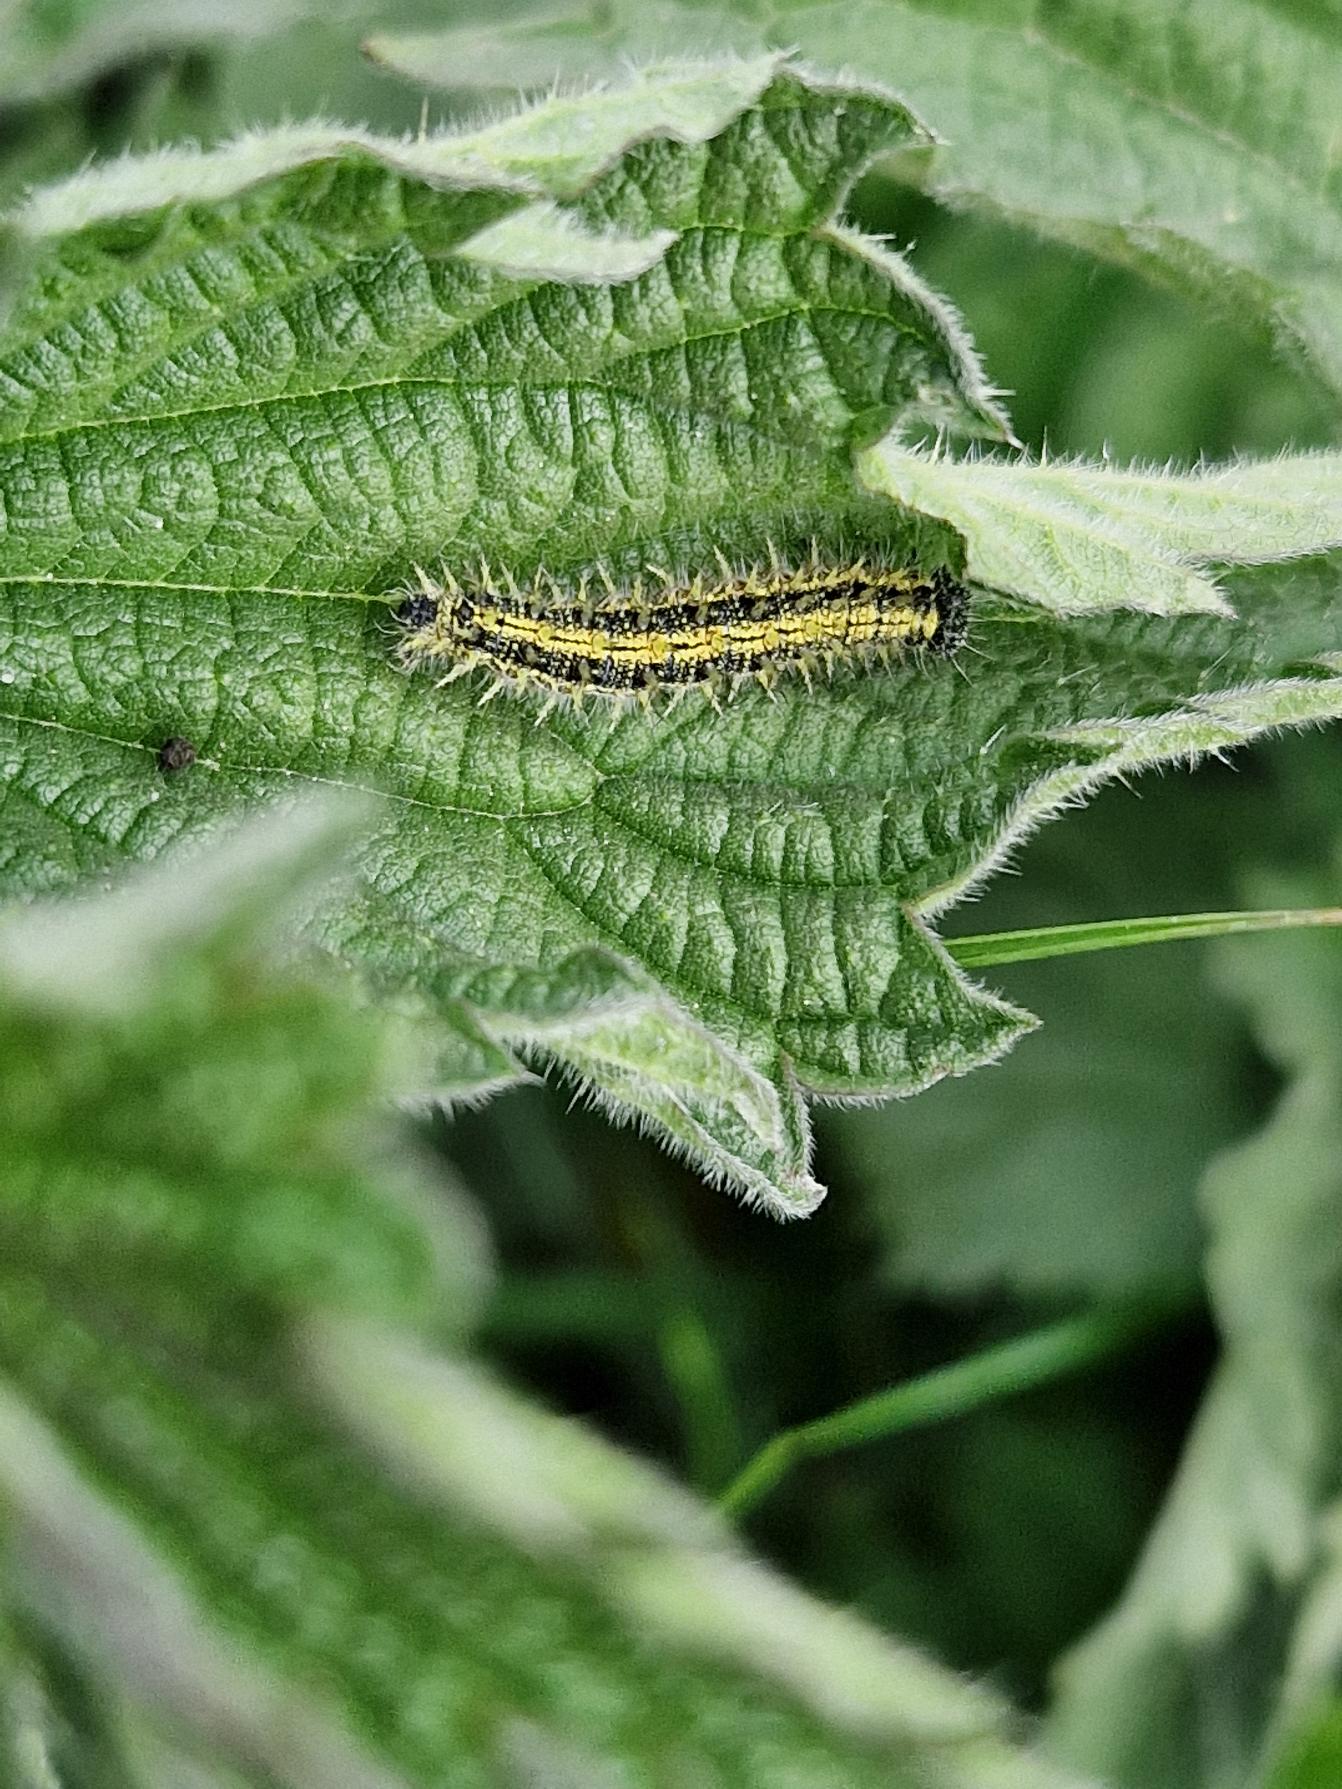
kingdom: Animalia
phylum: Arthropoda
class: Insecta
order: Lepidoptera
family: Nymphalidae
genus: Aglais
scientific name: Aglais urticae
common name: Nældens takvinge
